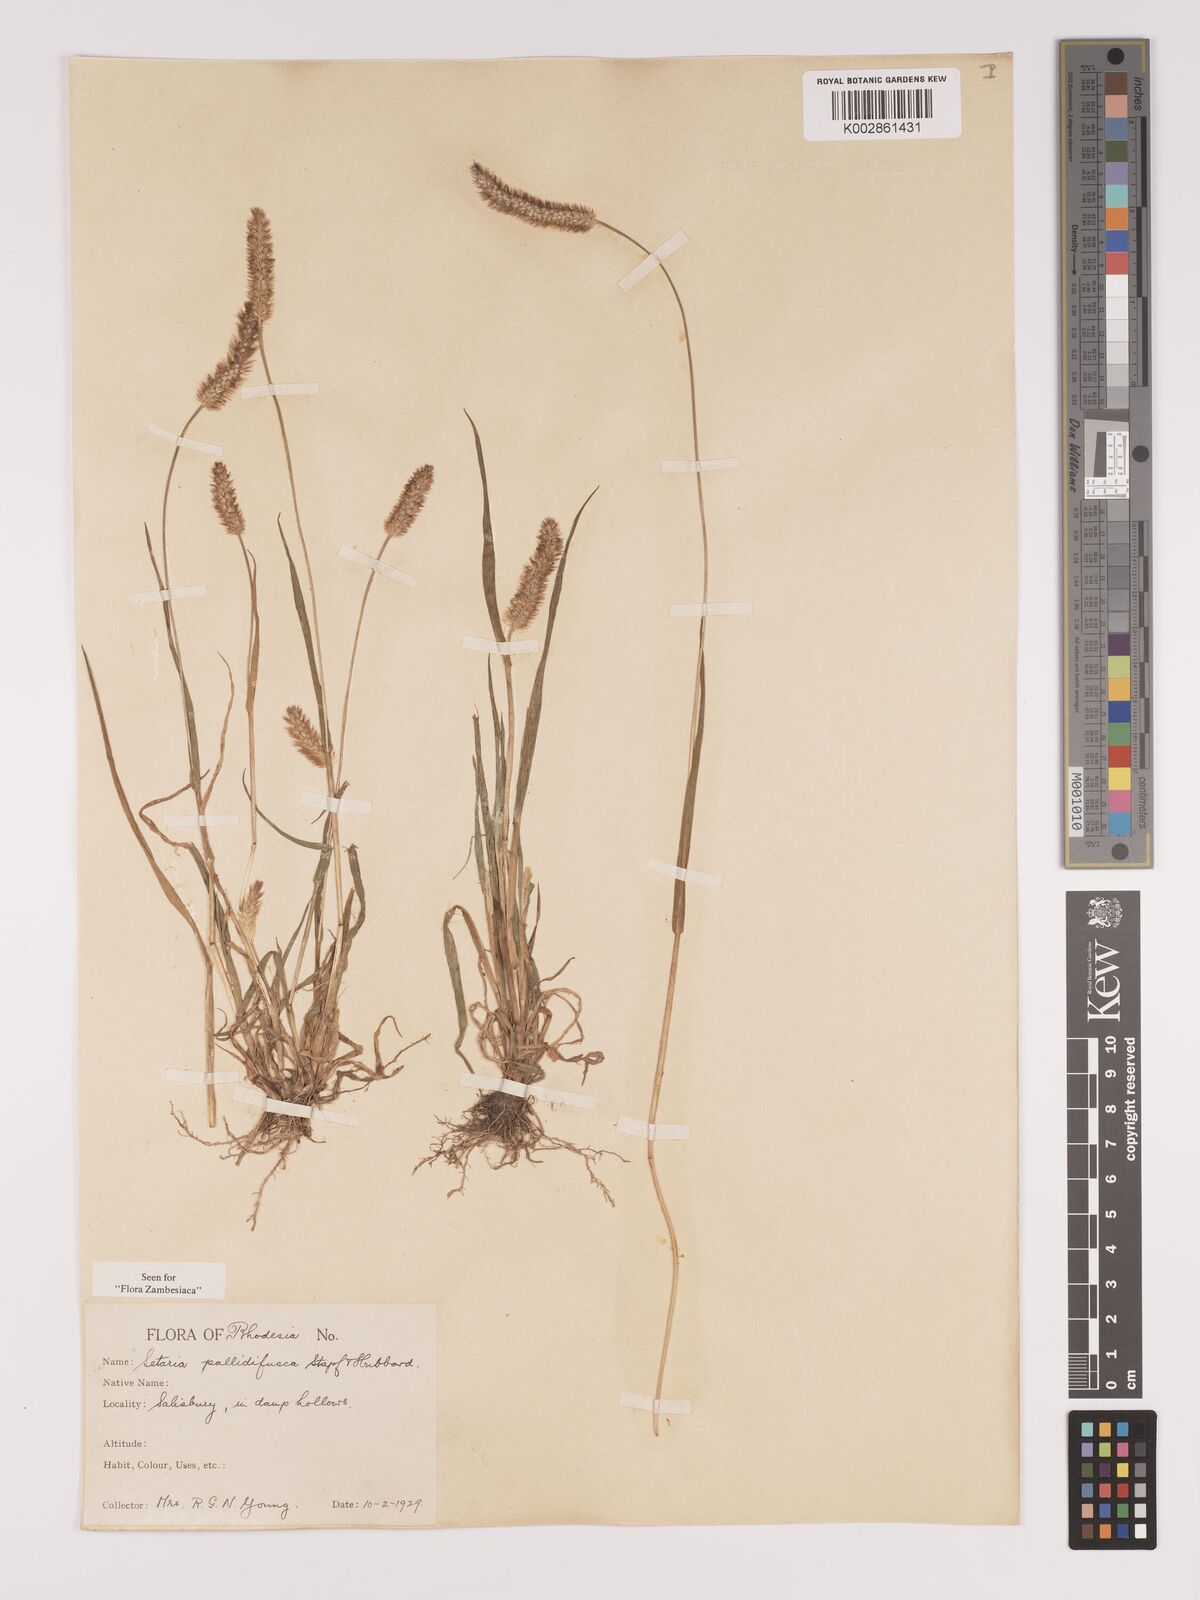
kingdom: Plantae
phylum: Tracheophyta
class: Liliopsida
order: Poales
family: Poaceae
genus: Setaria
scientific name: Setaria pumila
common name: Yellow bristle-grass
